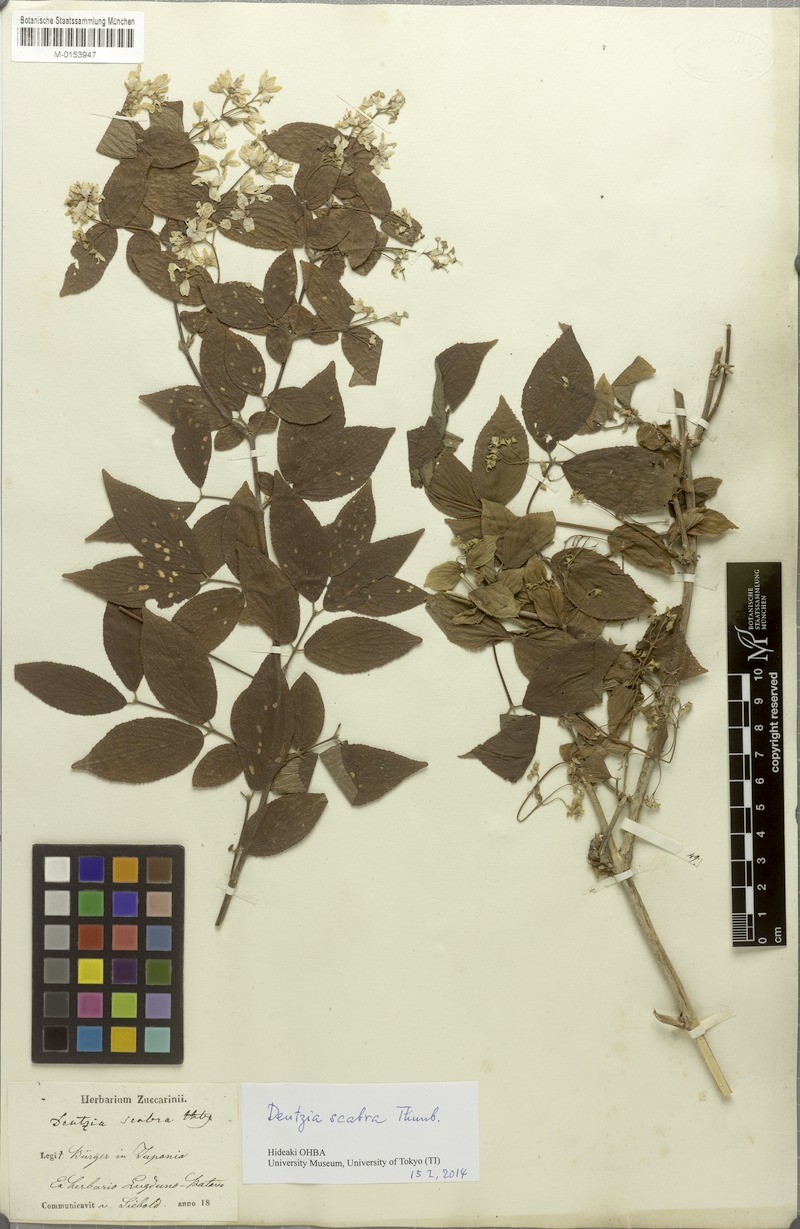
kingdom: Plantae
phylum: Tracheophyta
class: Magnoliopsida
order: Cornales
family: Hydrangeaceae
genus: Deutzia
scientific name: Deutzia scabra
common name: Deutzia
